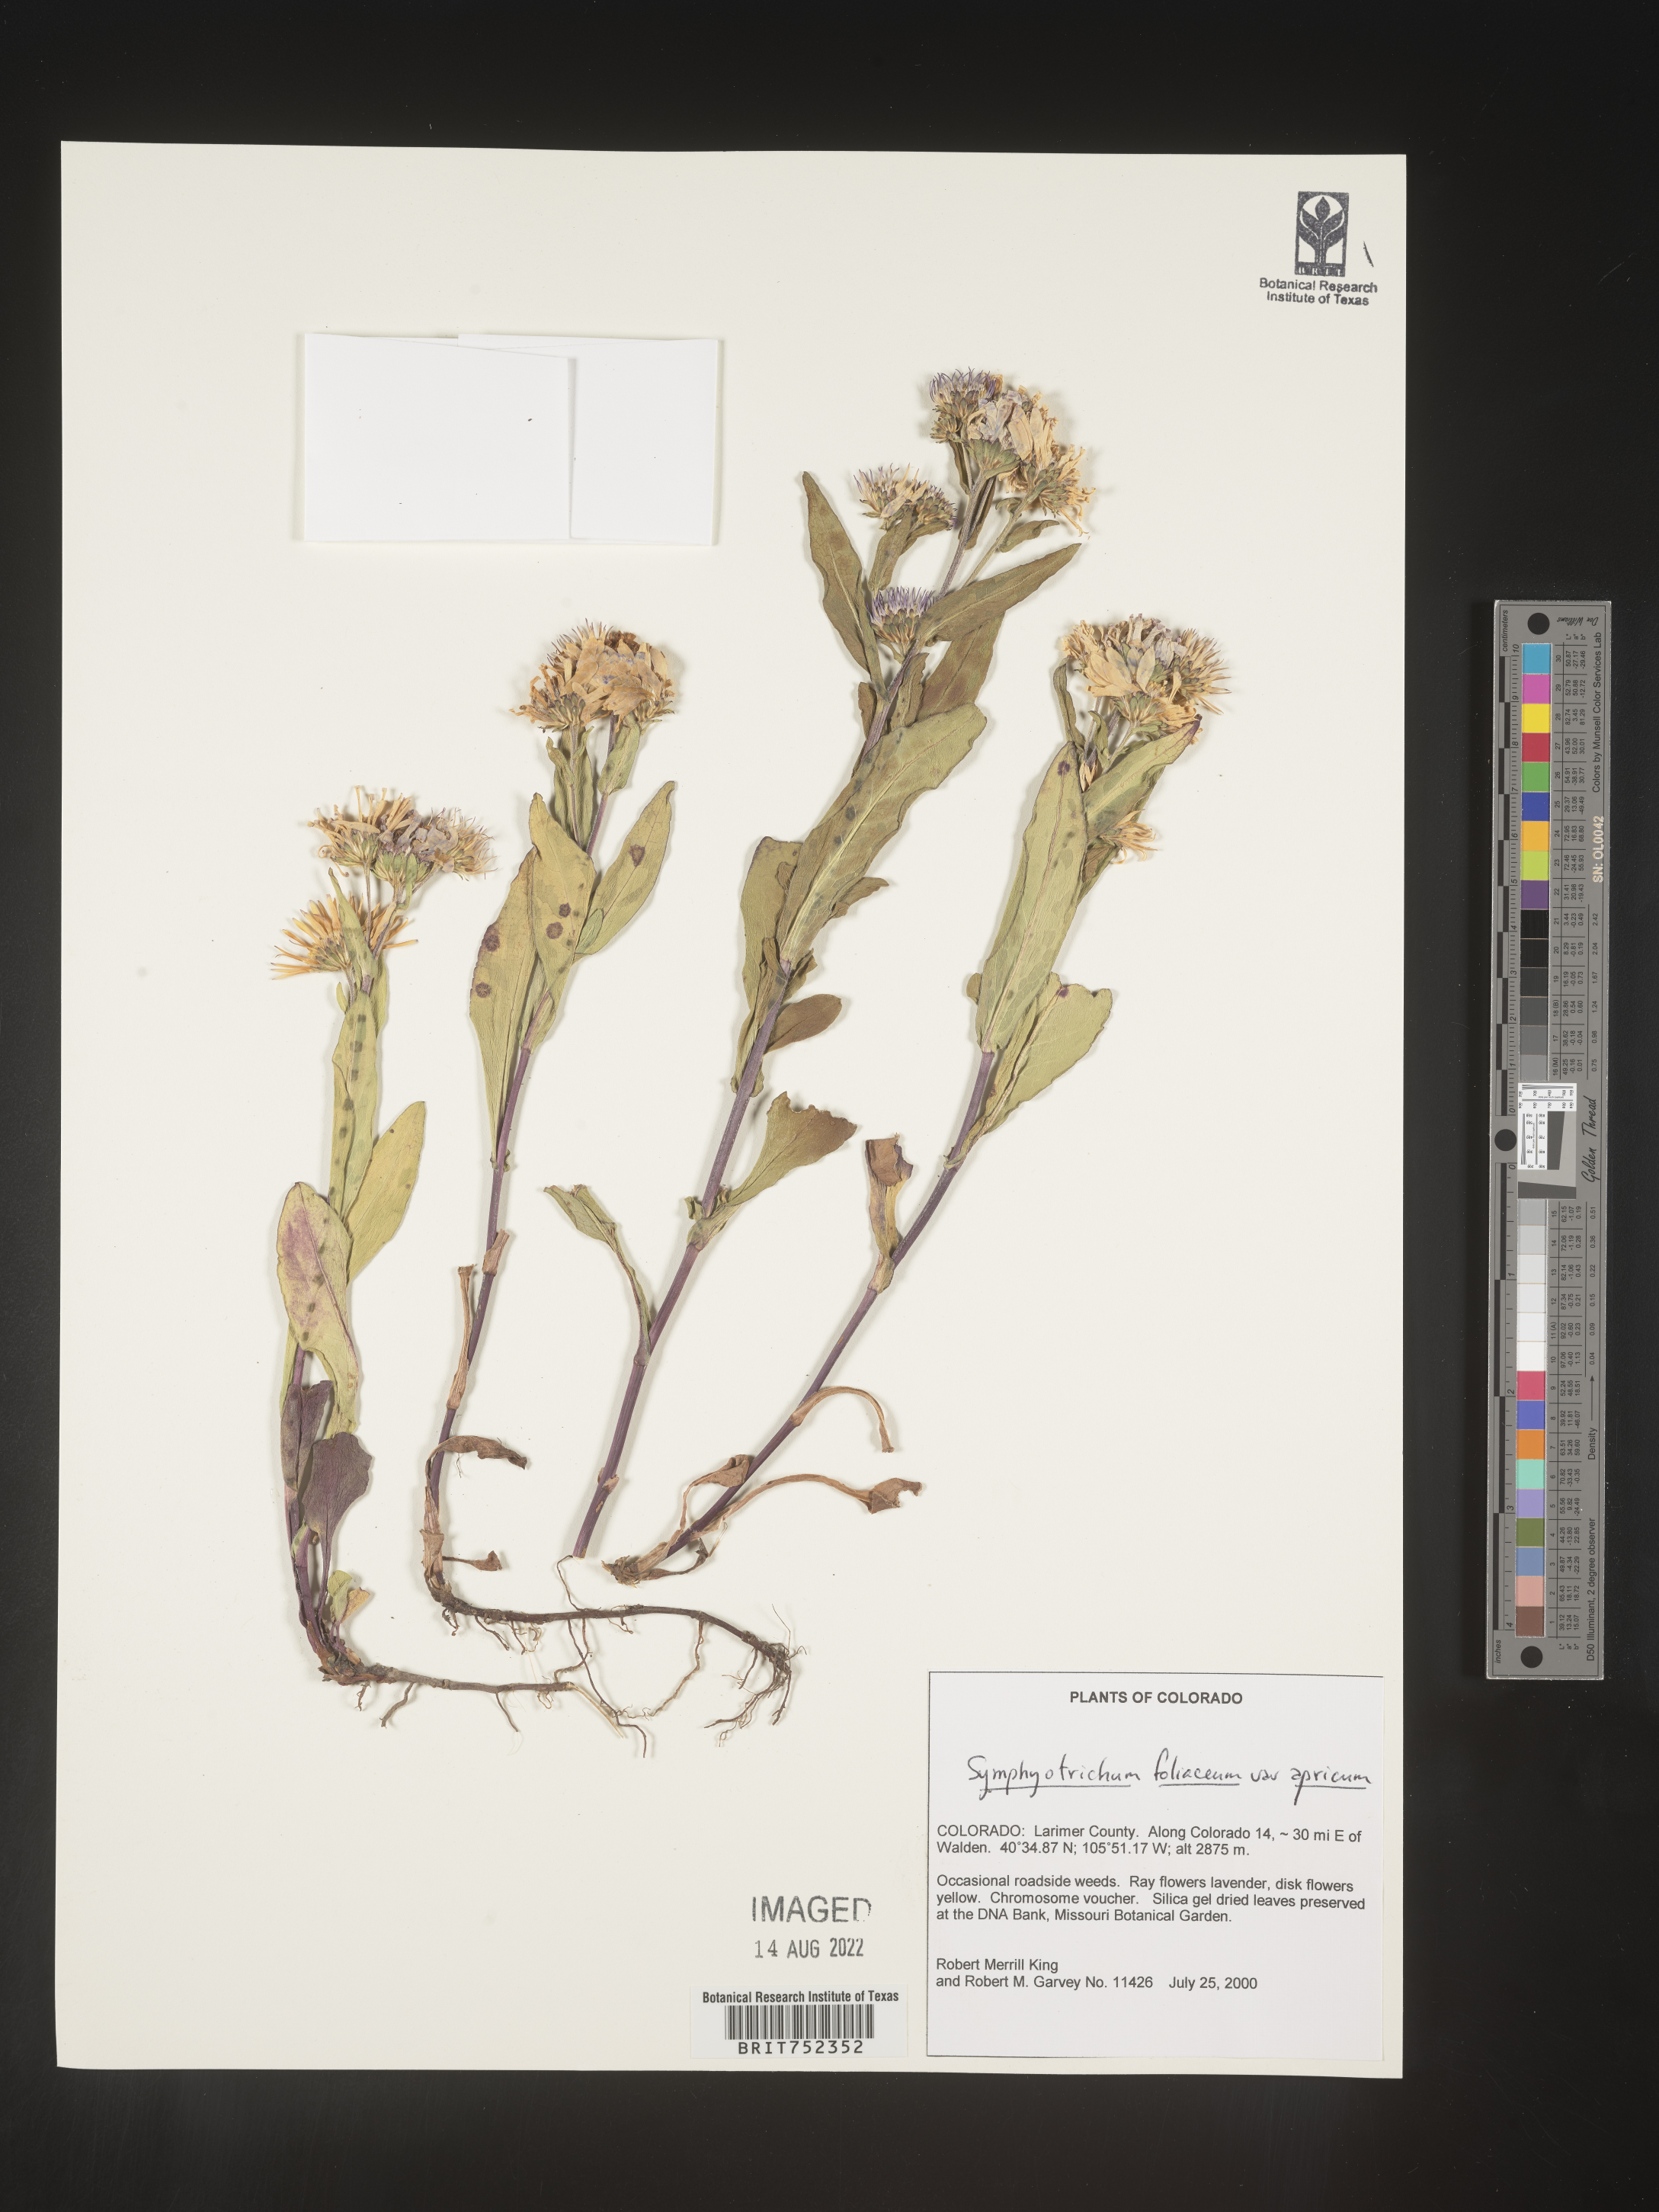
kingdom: Plantae
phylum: Tracheophyta
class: Magnoliopsida
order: Asterales
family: Asteraceae
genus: Symphyotrichum
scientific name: Symphyotrichum foliaceum
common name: Leafy aster
